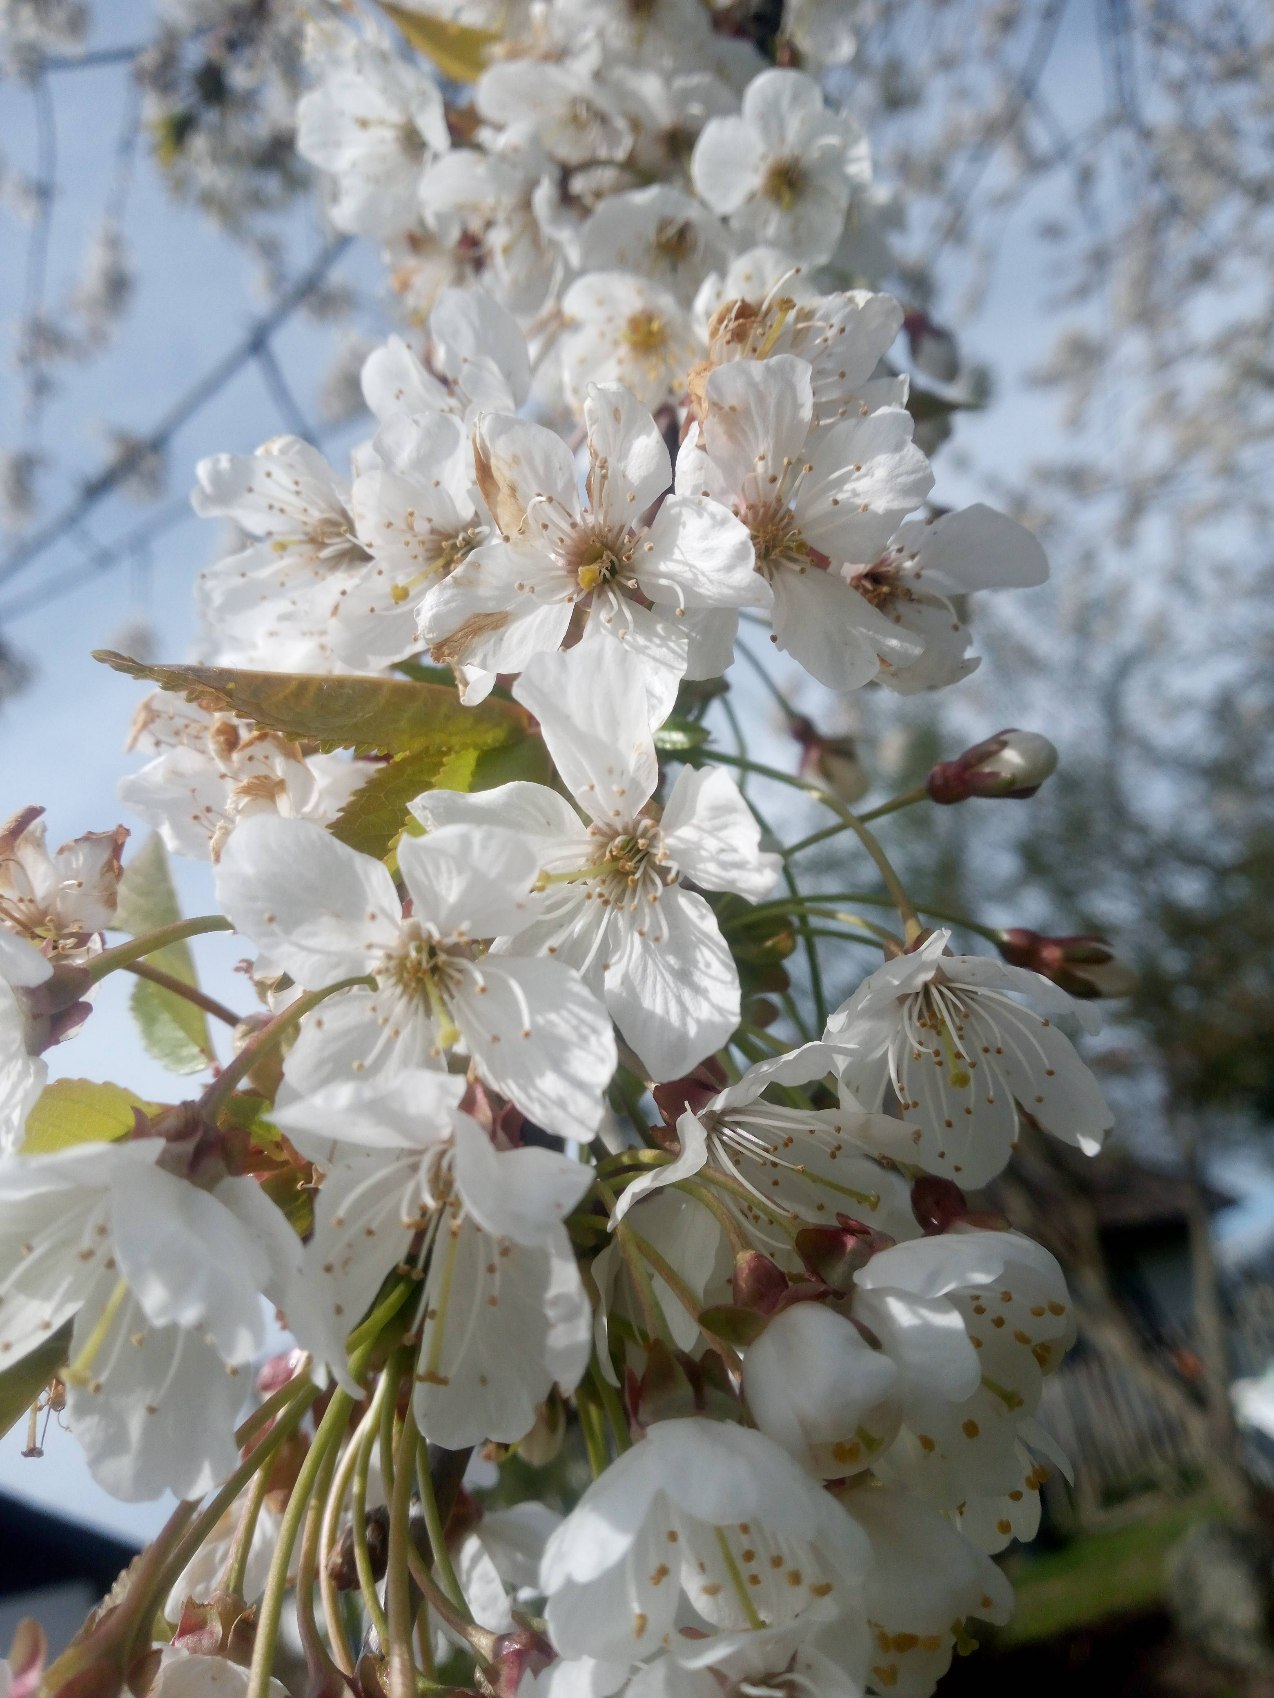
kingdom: Plantae
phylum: Tracheophyta
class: Magnoliopsida
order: Rosales
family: Rosaceae
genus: Prunus
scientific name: Prunus avium
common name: Fugle-kirsebær
